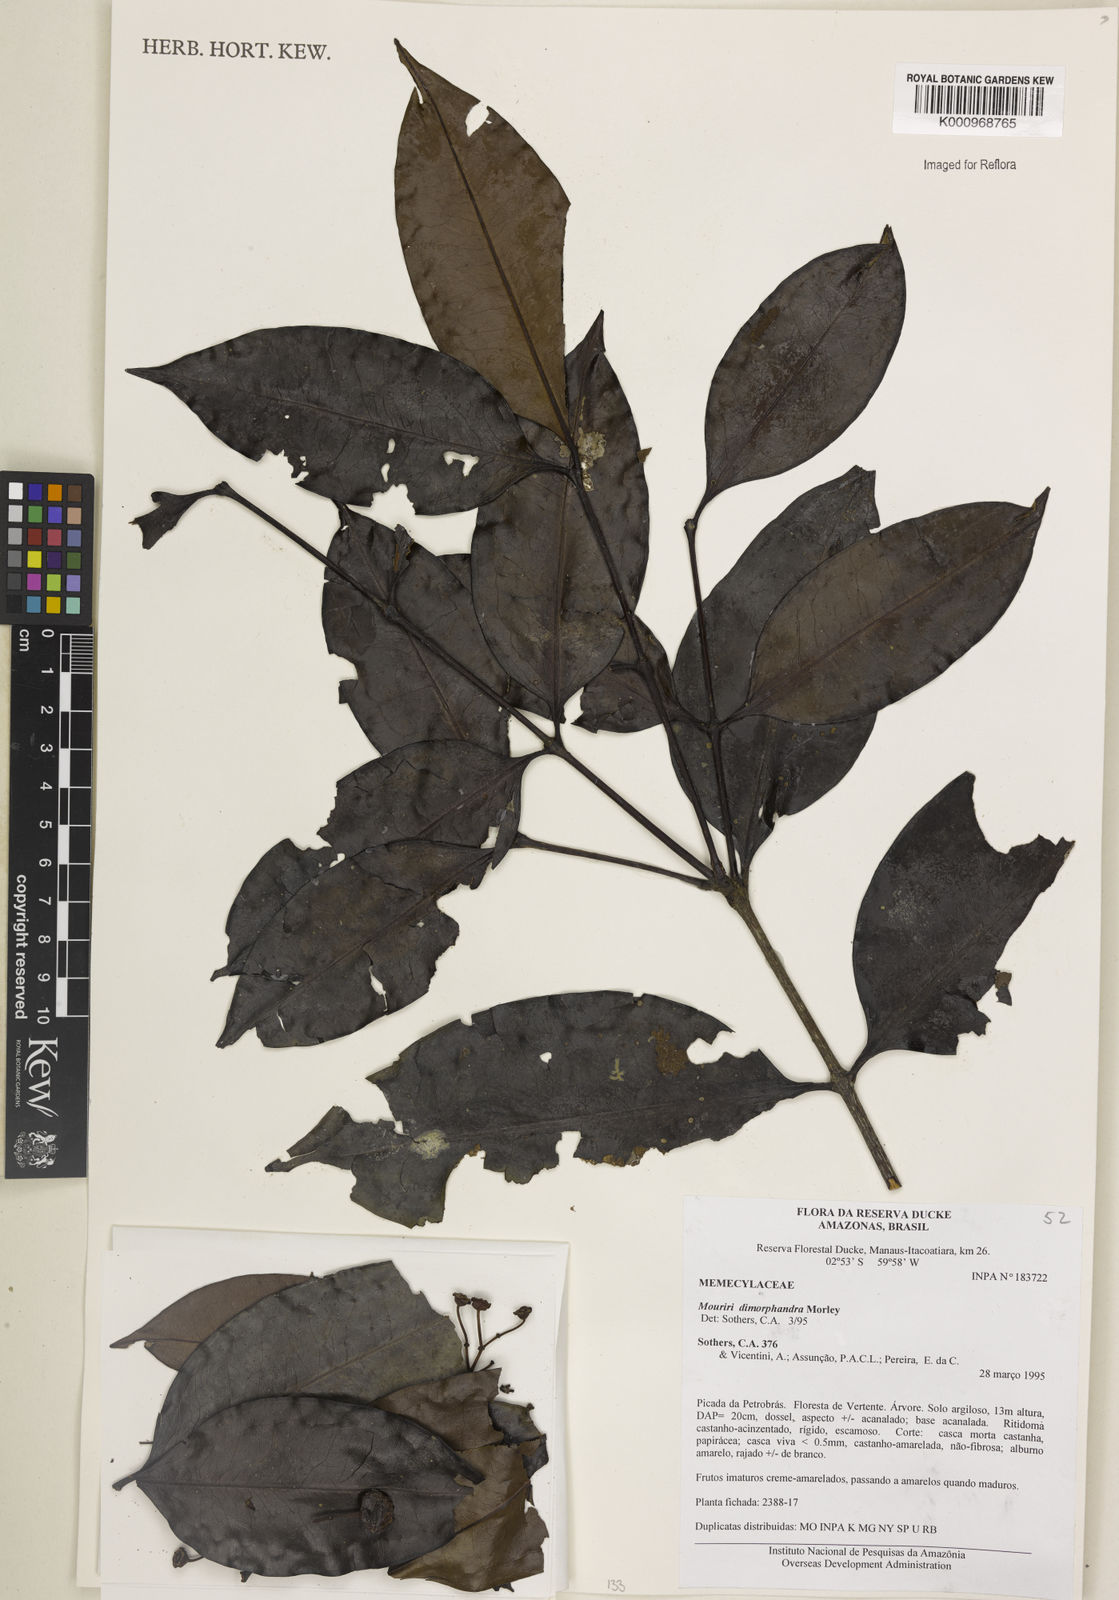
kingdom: Plantae
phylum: Tracheophyta
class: Magnoliopsida
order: Myrtales
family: Melastomataceae
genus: Mouriri
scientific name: Mouriri dimorphandra
